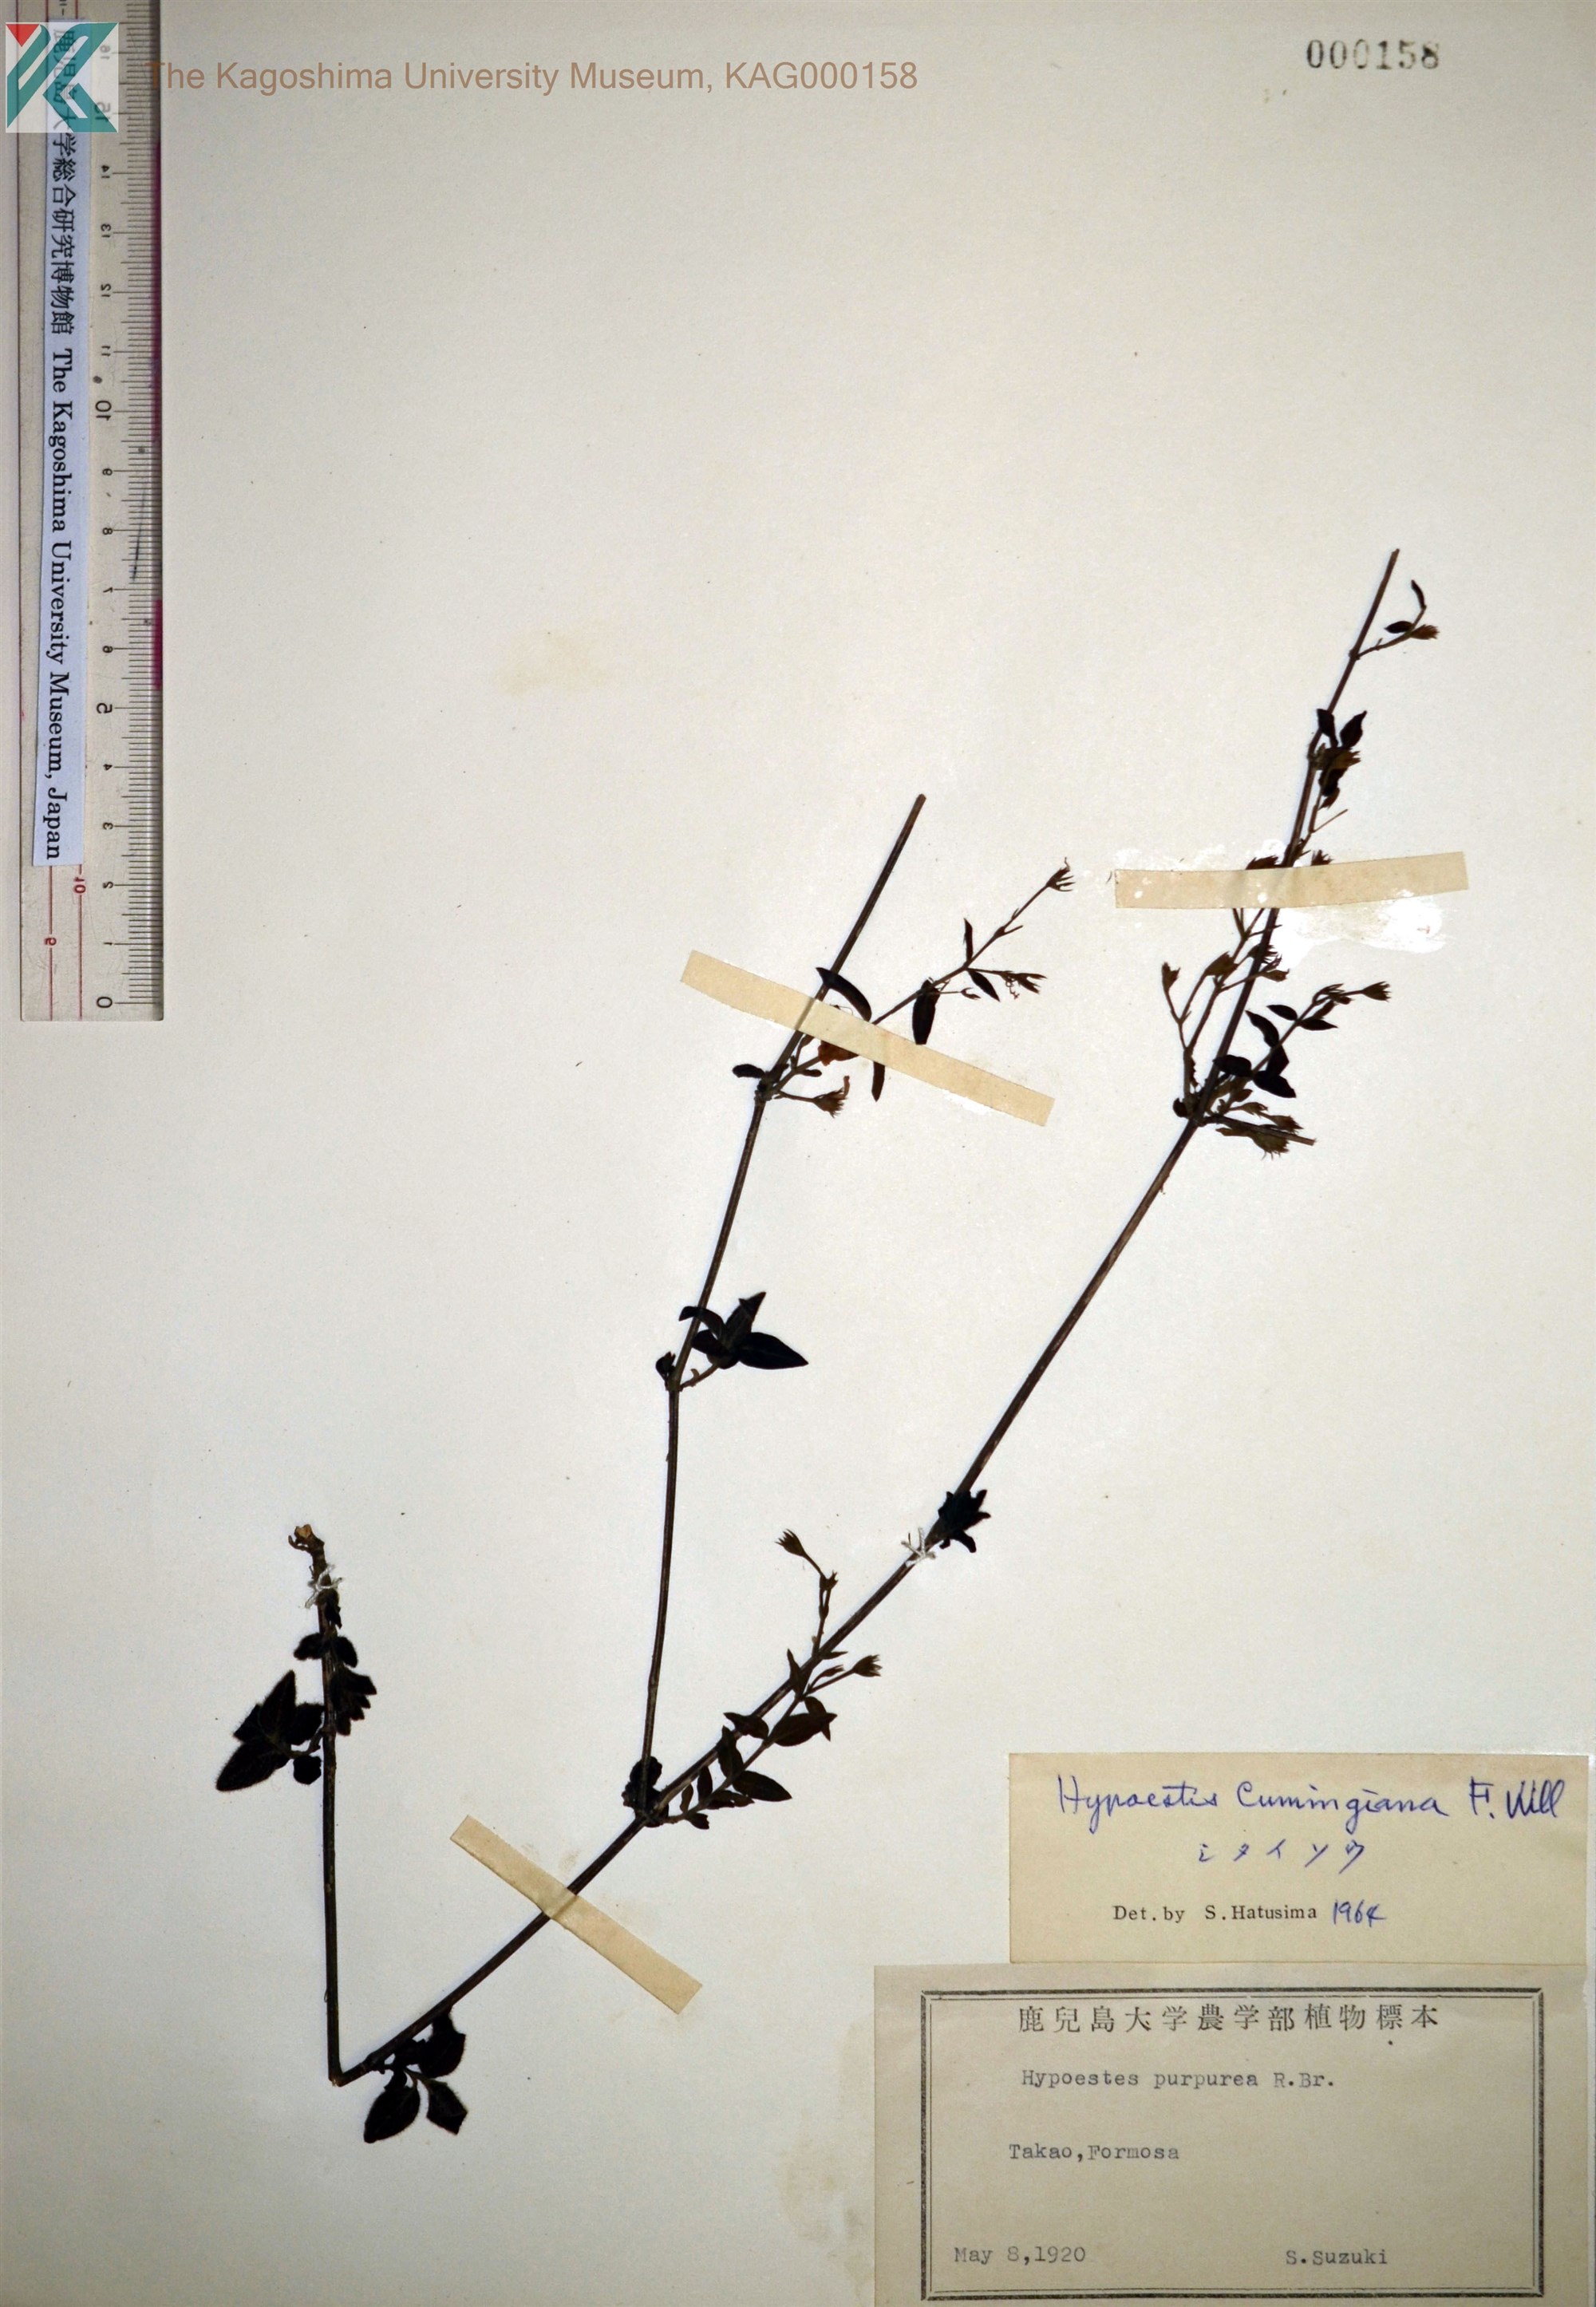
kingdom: Plantae
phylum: Tracheophyta
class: Magnoliopsida
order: Lamiales
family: Acanthaceae
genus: Hypoestes
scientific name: Hypoestes cumingiana
